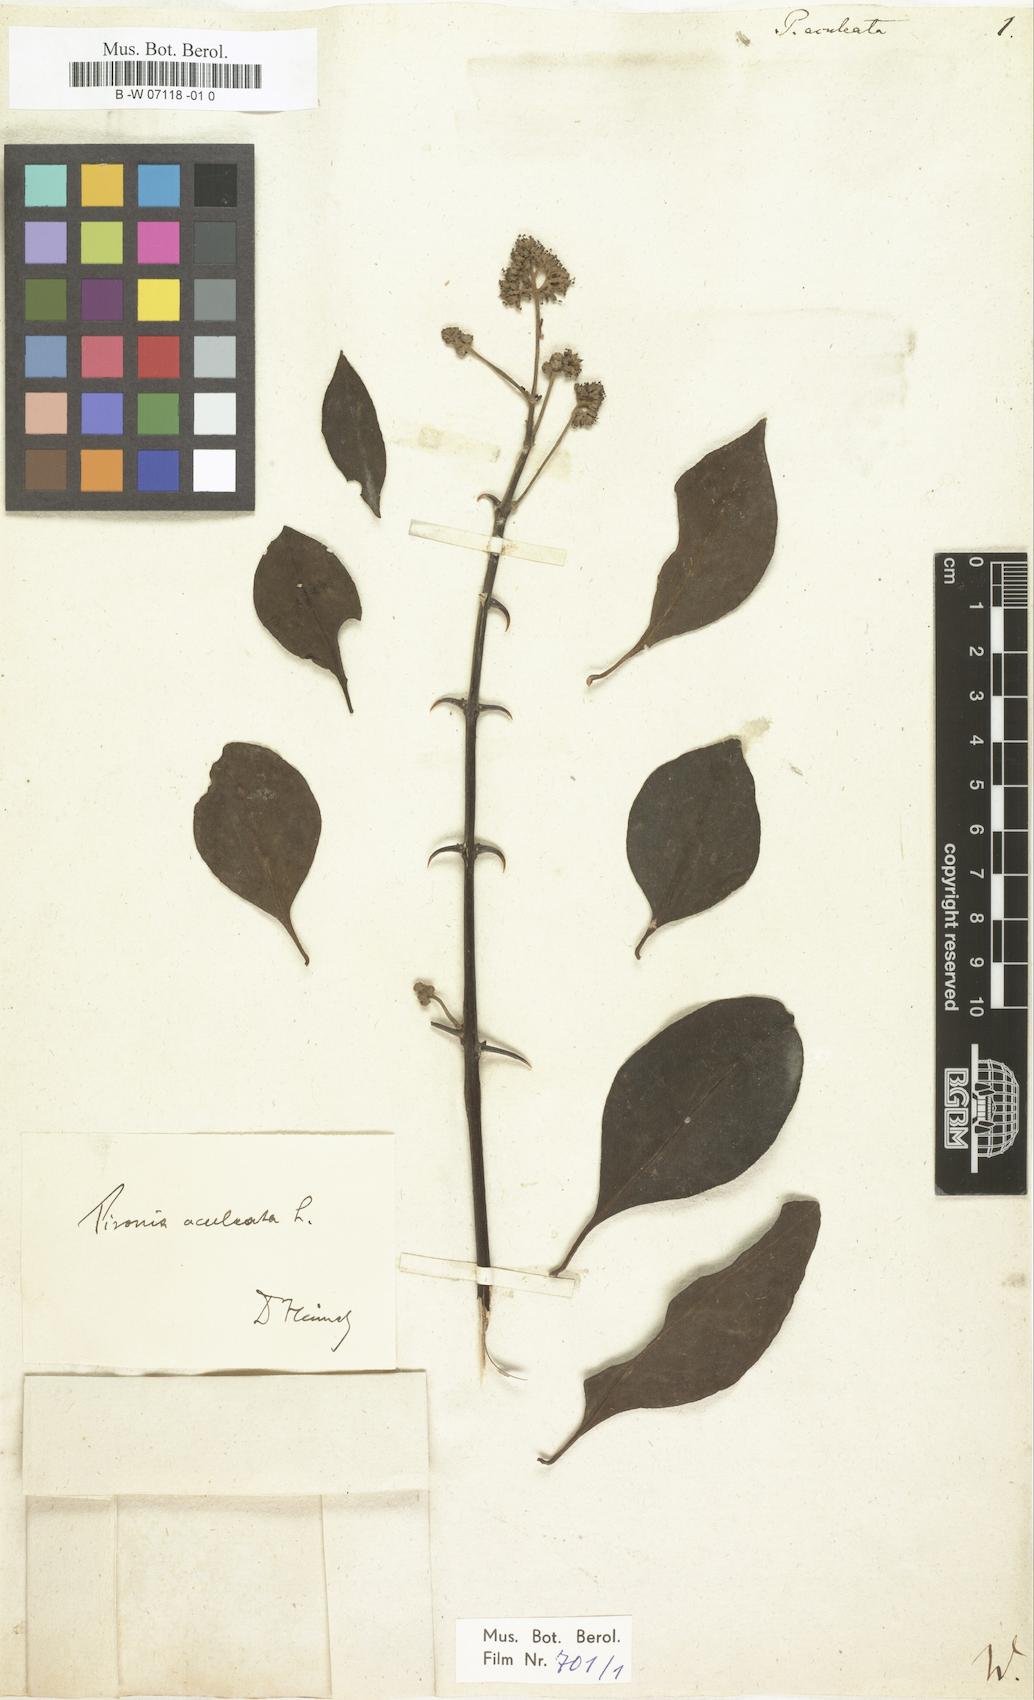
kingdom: Plantae
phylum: Tracheophyta
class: Magnoliopsida
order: Caryophyllales
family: Nyctaginaceae
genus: Pisonia
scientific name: Pisonia aculeata
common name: Cockspur vine
